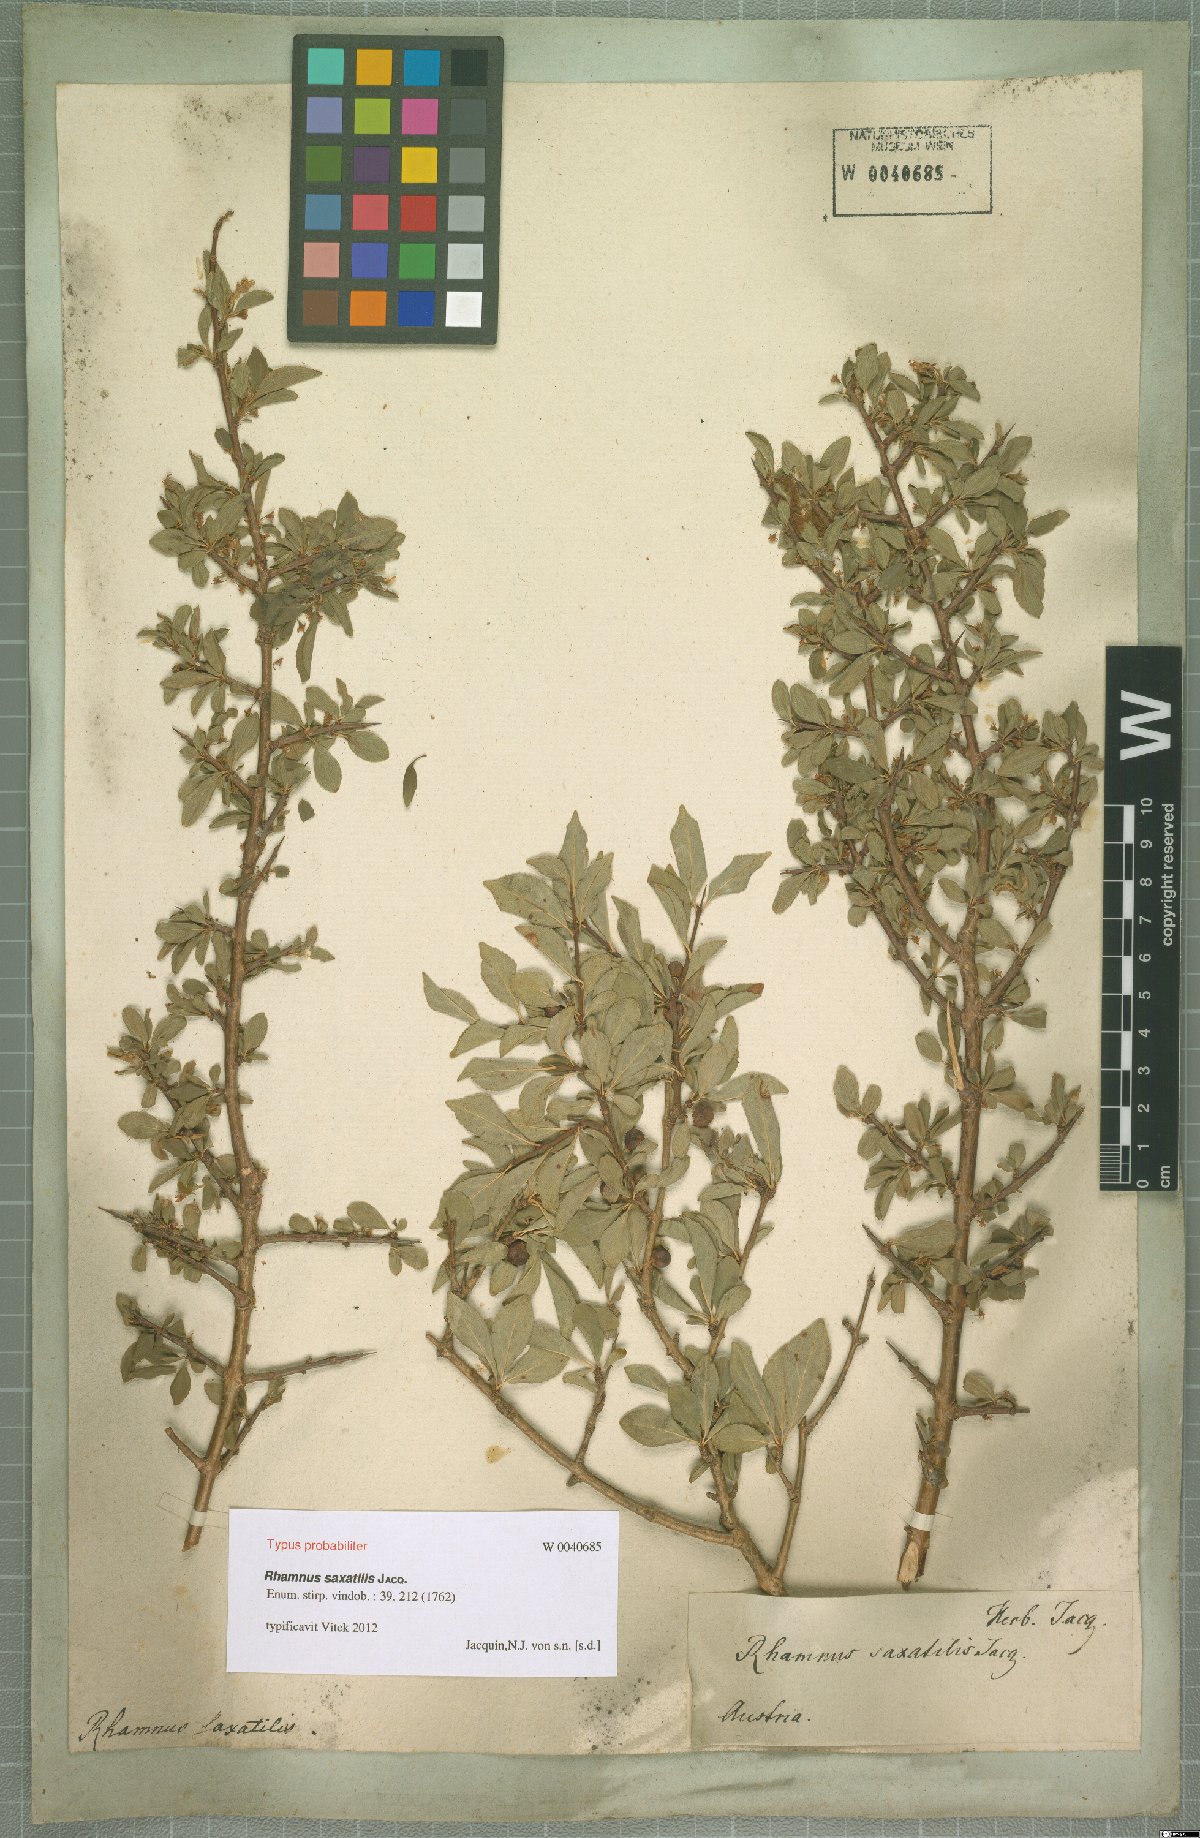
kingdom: Plantae
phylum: Tracheophyta
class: Magnoliopsida
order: Rosales
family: Rhamnaceae
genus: Rhamnus
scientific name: Rhamnus saxatilis
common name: Rock buckthorn
